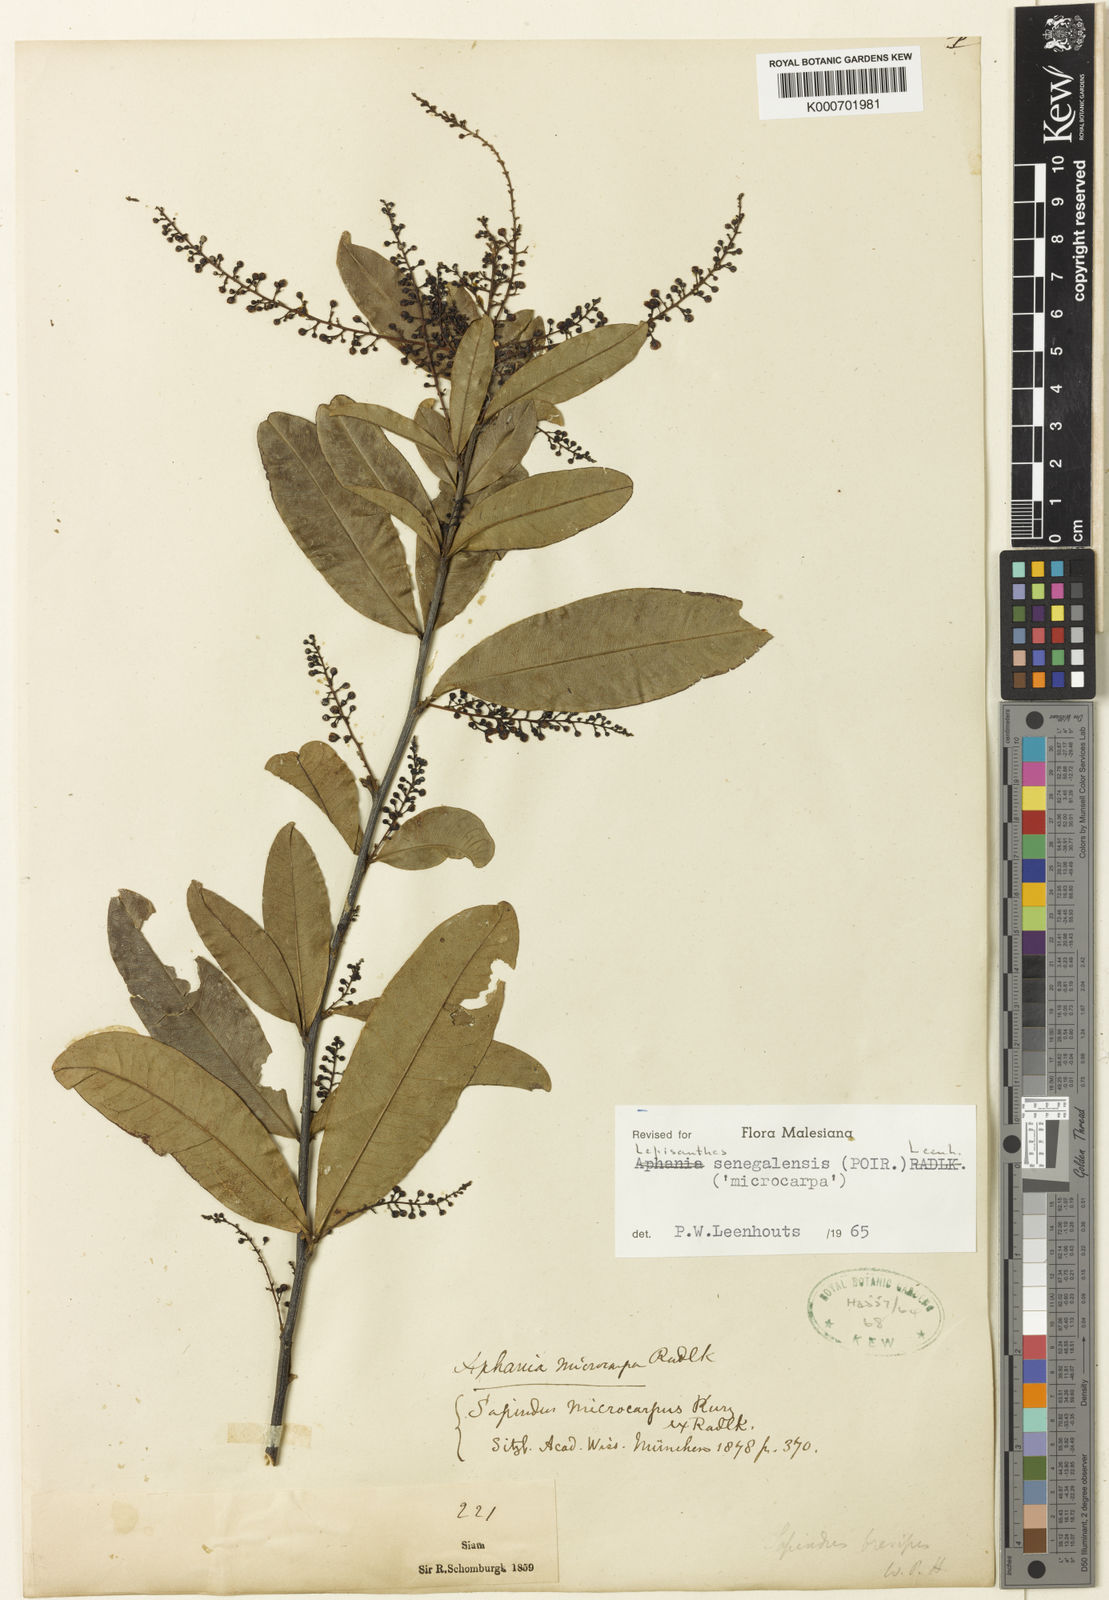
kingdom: Plantae
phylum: Tracheophyta
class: Magnoliopsida
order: Sapindales
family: Sapindaceae
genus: Lepisanthes
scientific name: Lepisanthes senegalensis
